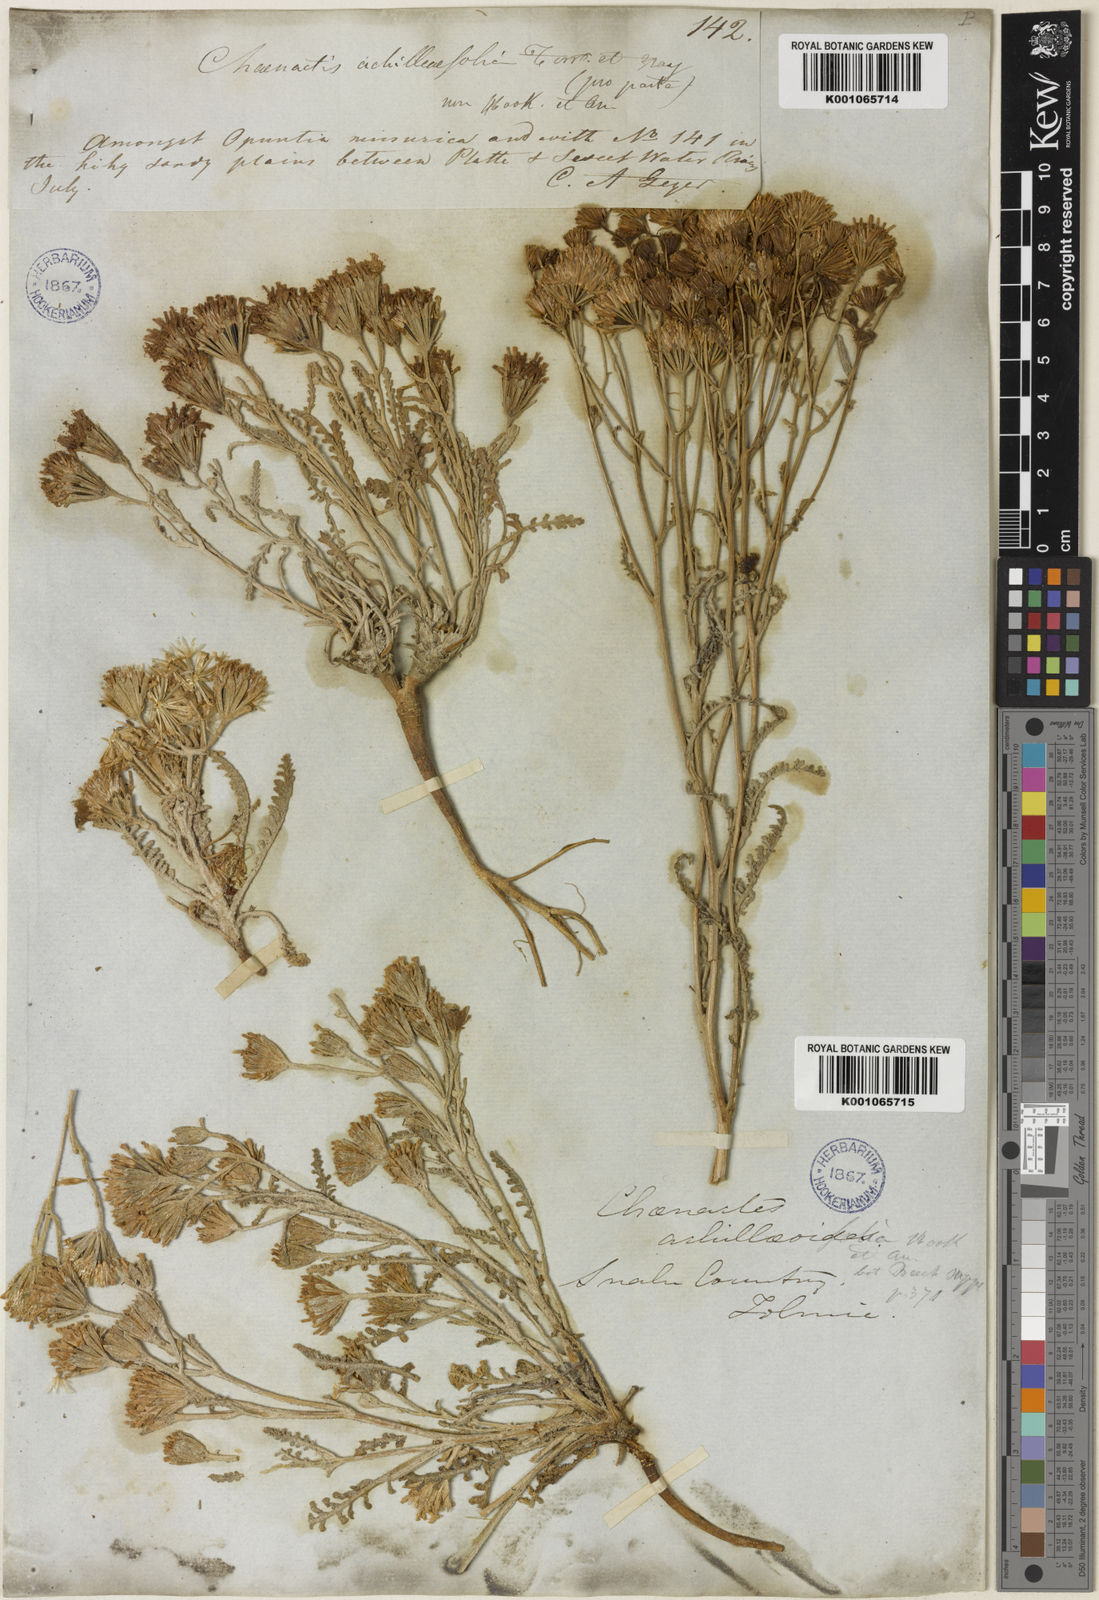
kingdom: Plantae
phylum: Tracheophyta
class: Magnoliopsida
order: Asterales
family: Asteraceae
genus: Chaenactis
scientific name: Chaenactis douglasii
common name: Hoary pincushion
